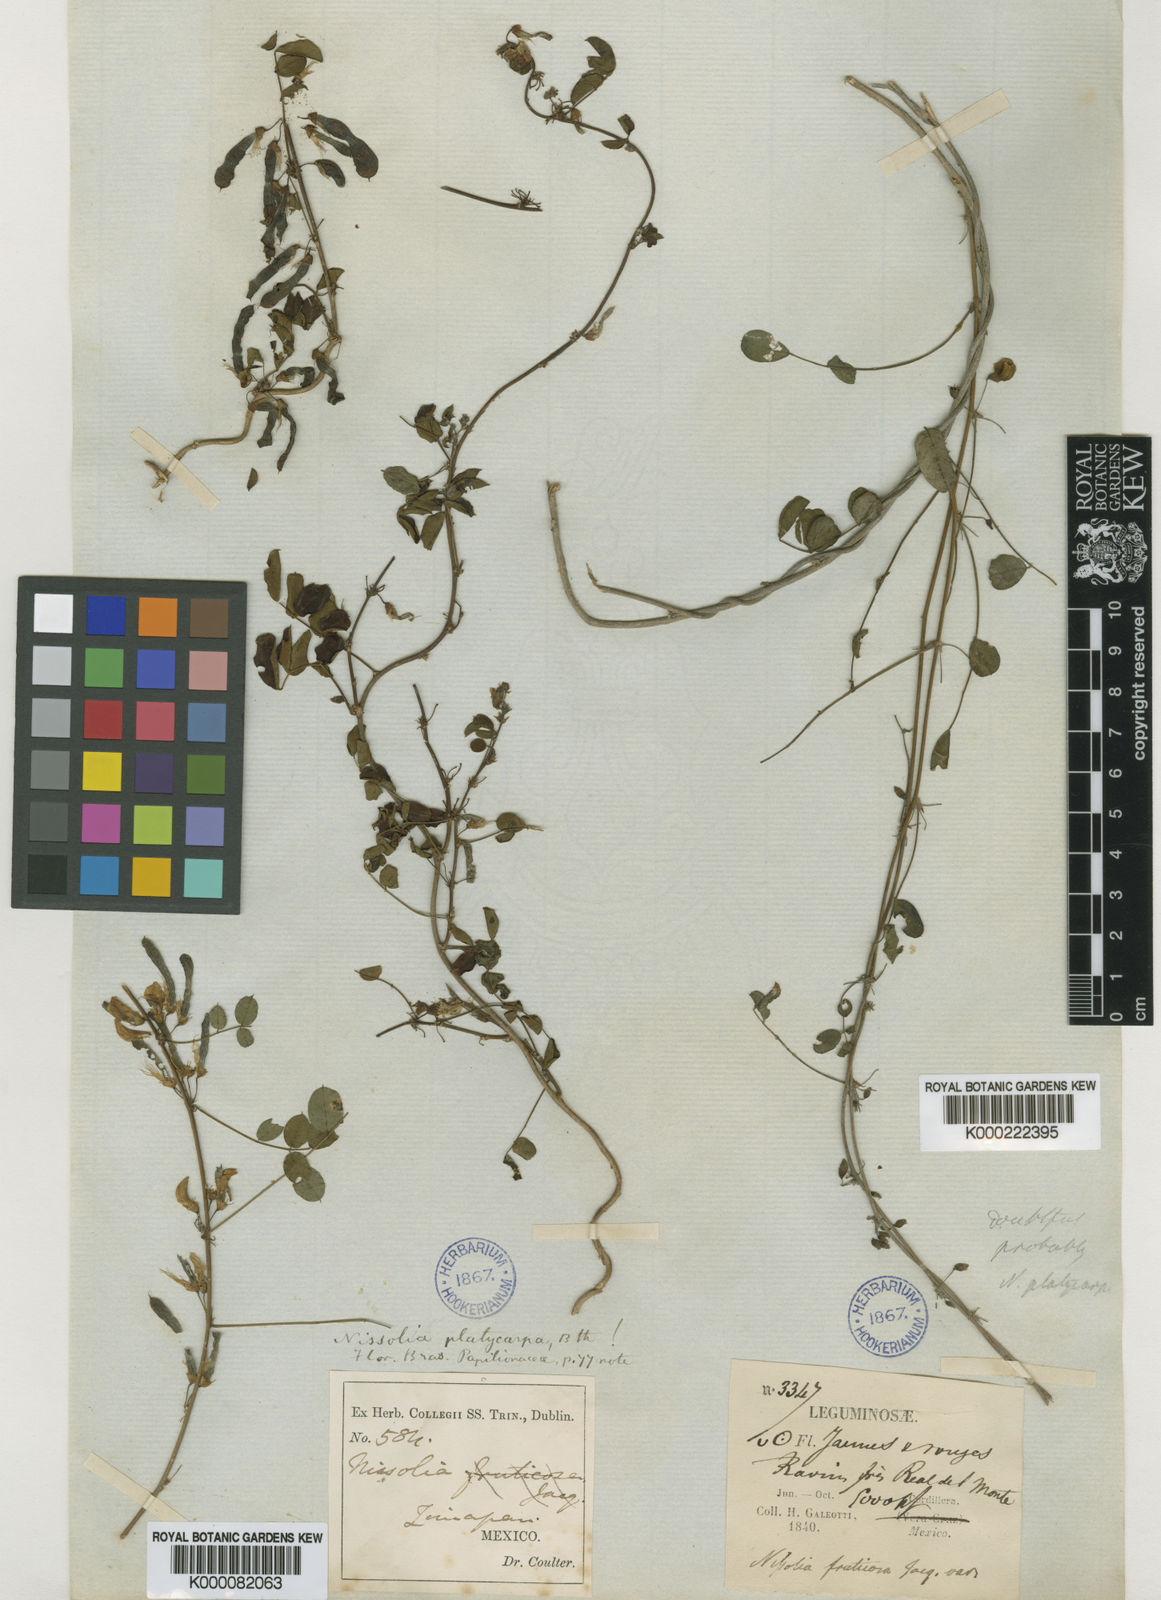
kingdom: Plantae
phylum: Tracheophyta
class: Magnoliopsida
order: Fabales
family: Fabaceae
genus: Nissolia
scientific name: Nissolia platycarpa
